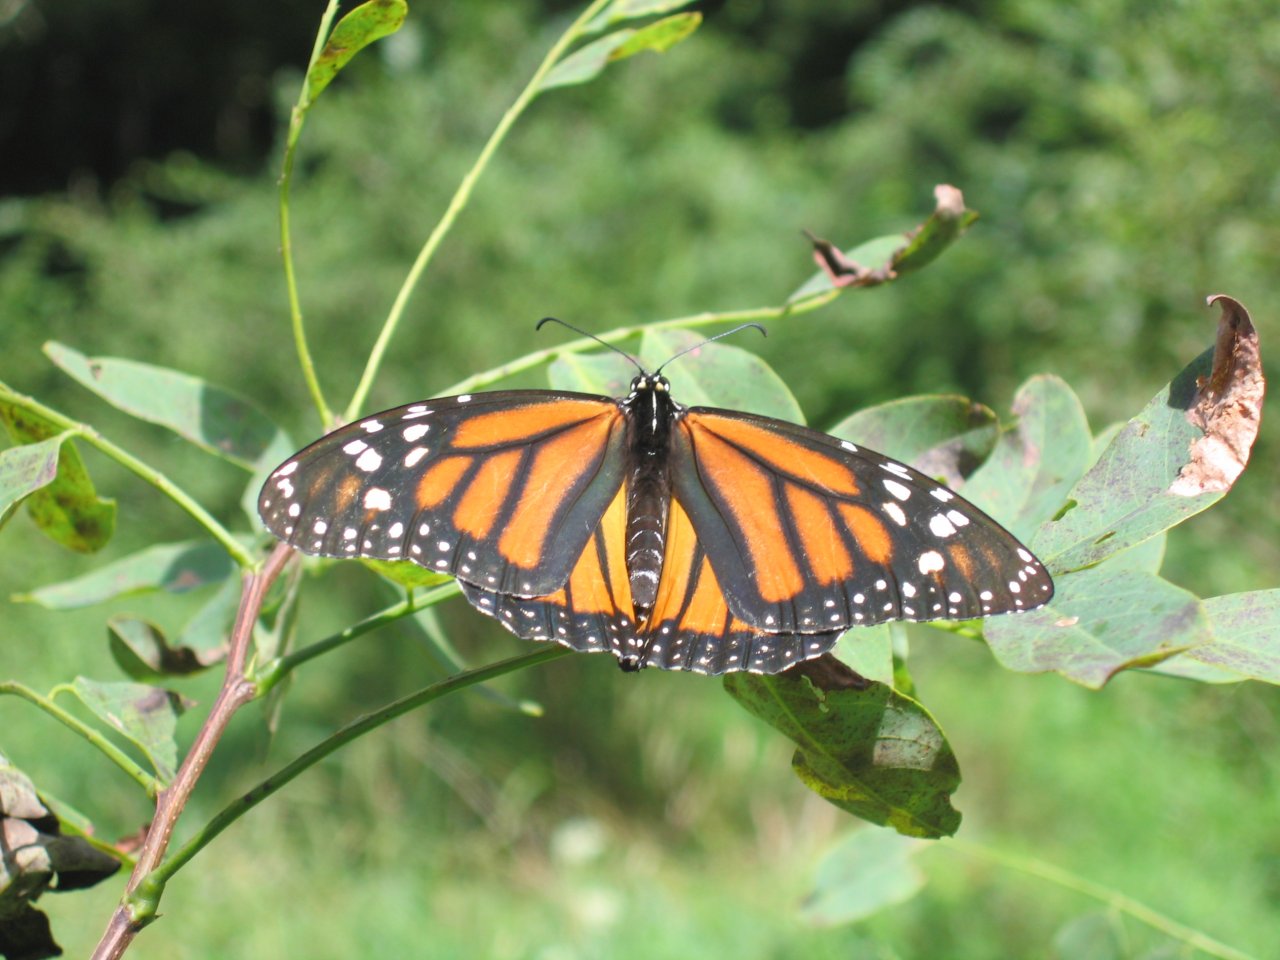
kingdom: Animalia
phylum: Arthropoda
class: Insecta
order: Lepidoptera
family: Nymphalidae
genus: Danaus
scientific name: Danaus plexippus
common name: Monarch
